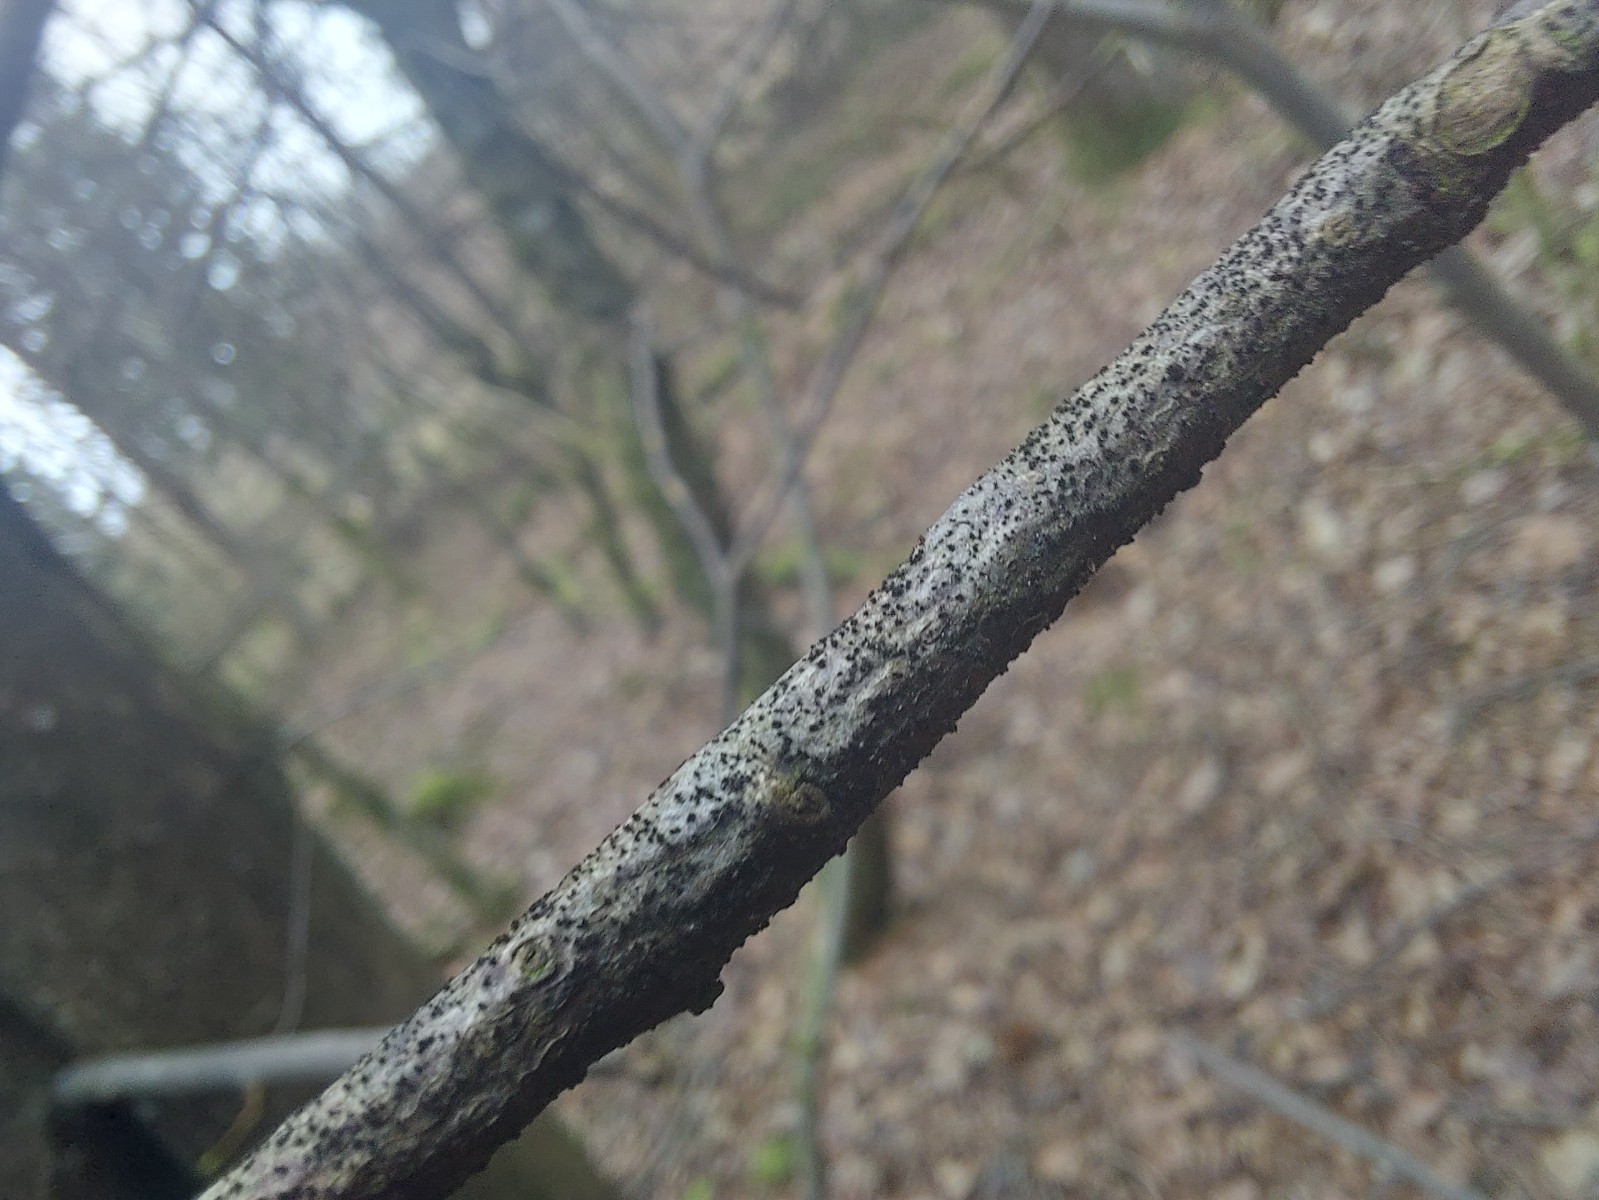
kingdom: Fungi
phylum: Ascomycota
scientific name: Ascomycota
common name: sæksvampe
